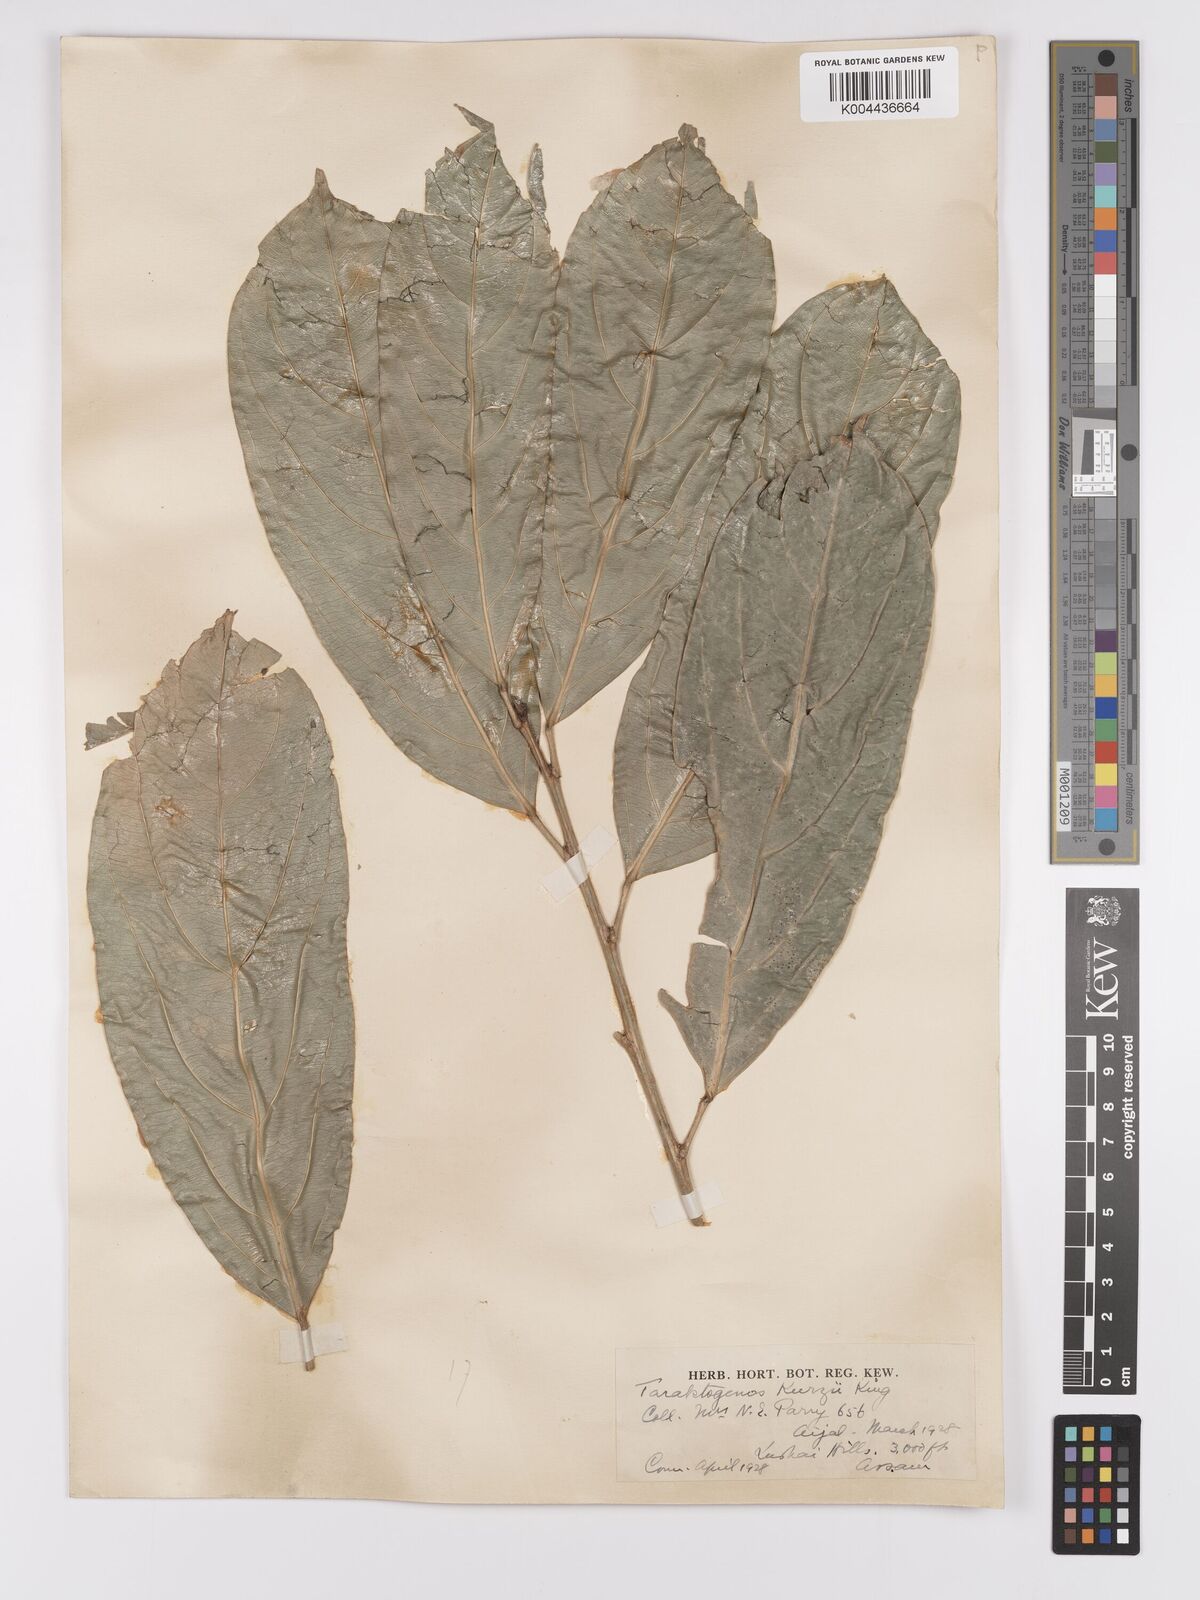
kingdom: Plantae
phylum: Tracheophyta
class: Magnoliopsida
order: Malpighiales
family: Achariaceae
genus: Hydnocarpus
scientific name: Hydnocarpus kurzii
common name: Chaulmoogra
